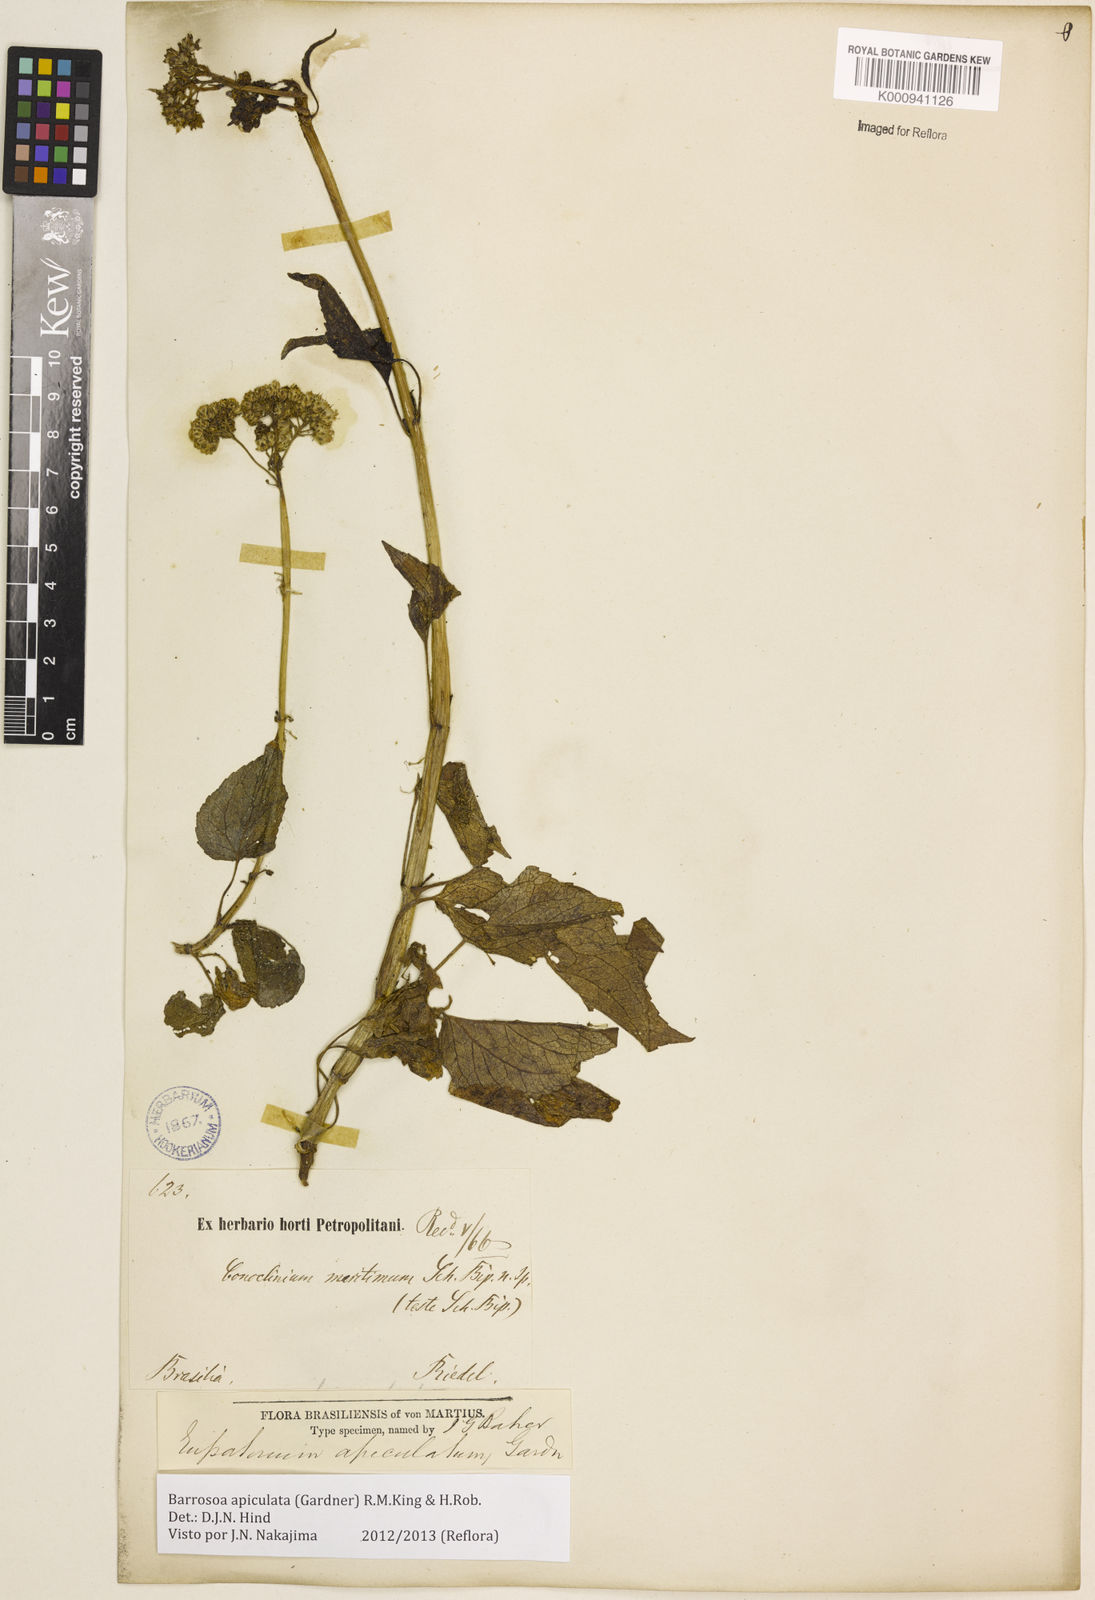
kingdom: Plantae
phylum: Tracheophyta
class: Magnoliopsida
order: Asterales
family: Asteraceae
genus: Barrosoa
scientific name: Barrosoa apiculata
